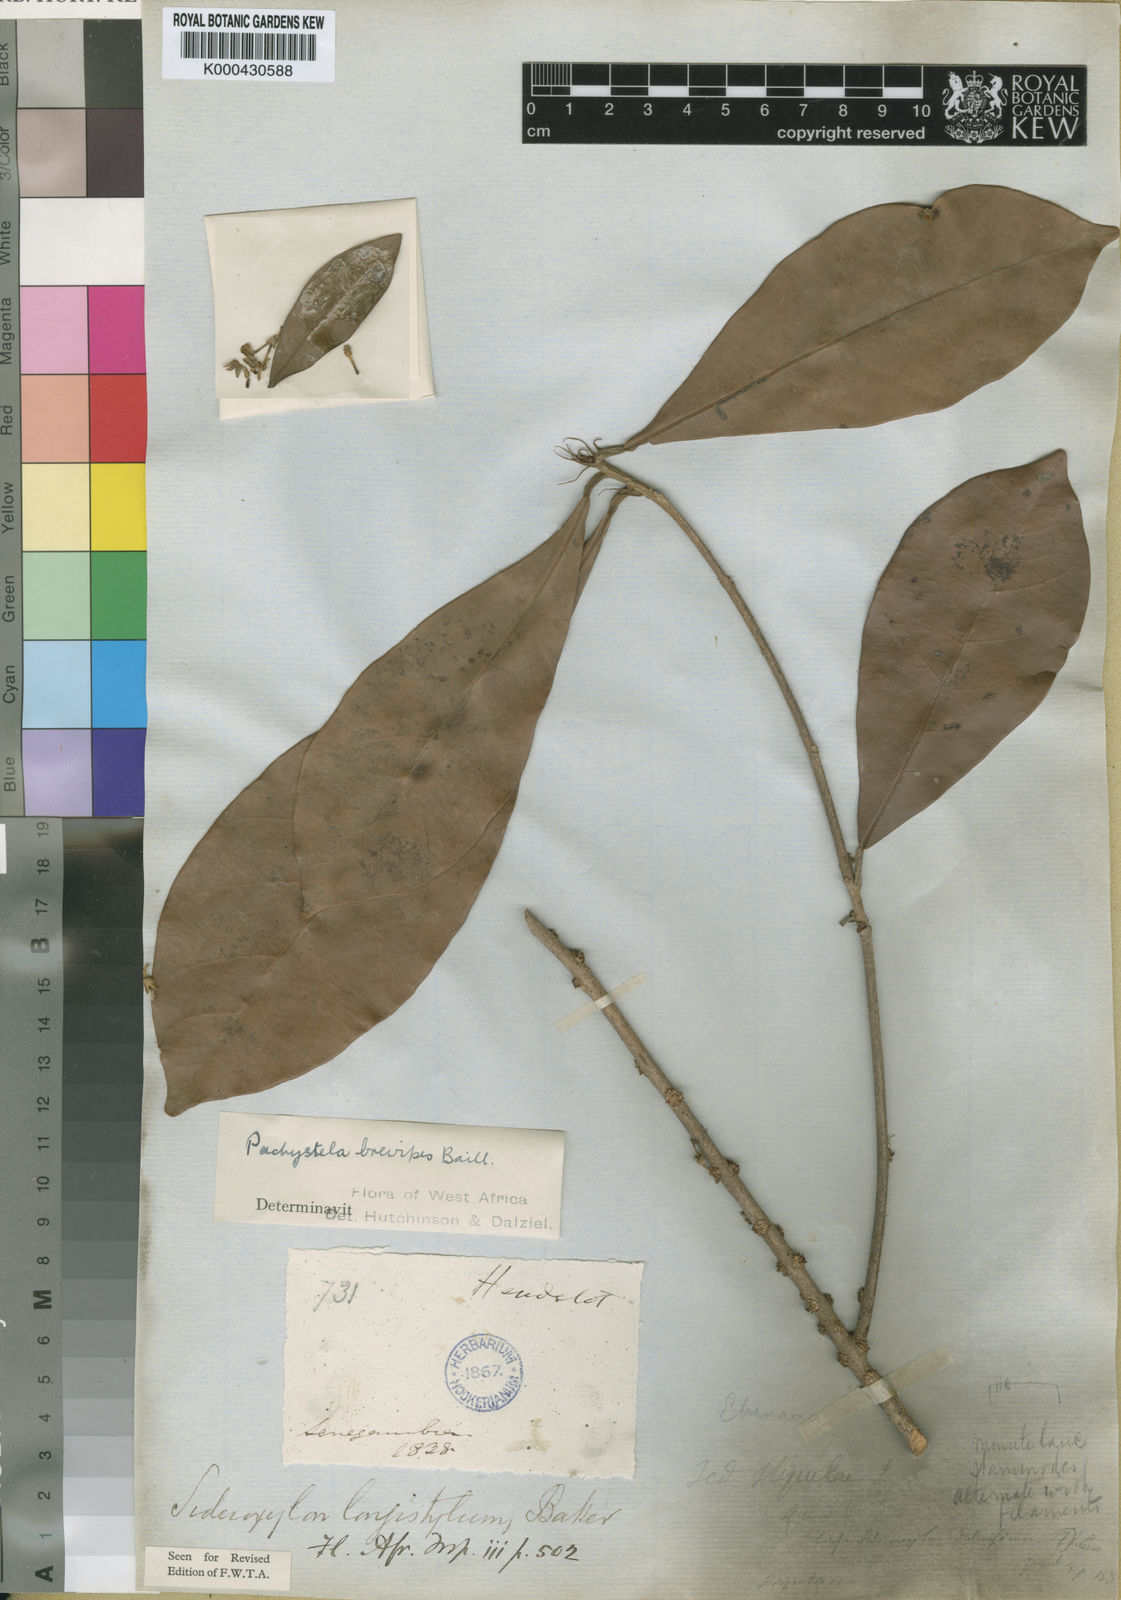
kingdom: Plantae
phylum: Tracheophyta
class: Magnoliopsida
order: Ericales
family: Sapotaceae
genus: Synsepalum
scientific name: Synsepalum brevipes
